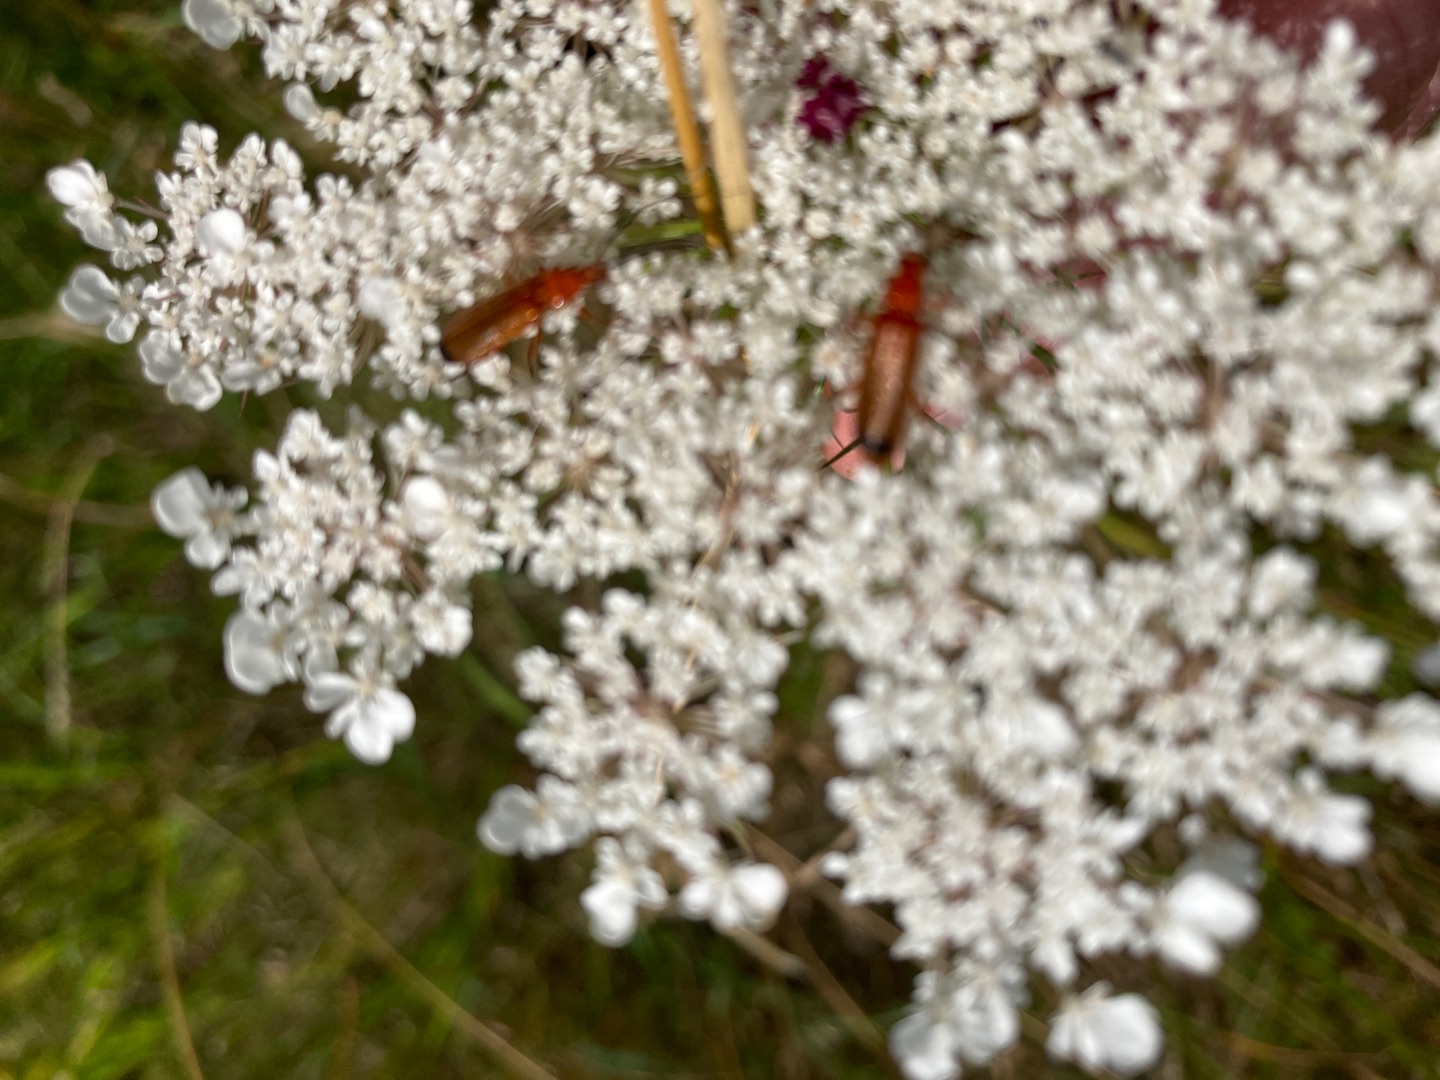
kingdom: Animalia
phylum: Arthropoda
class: Insecta
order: Coleoptera
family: Cantharidae
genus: Rhagonycha
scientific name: Rhagonycha fulva
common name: Præstebille
